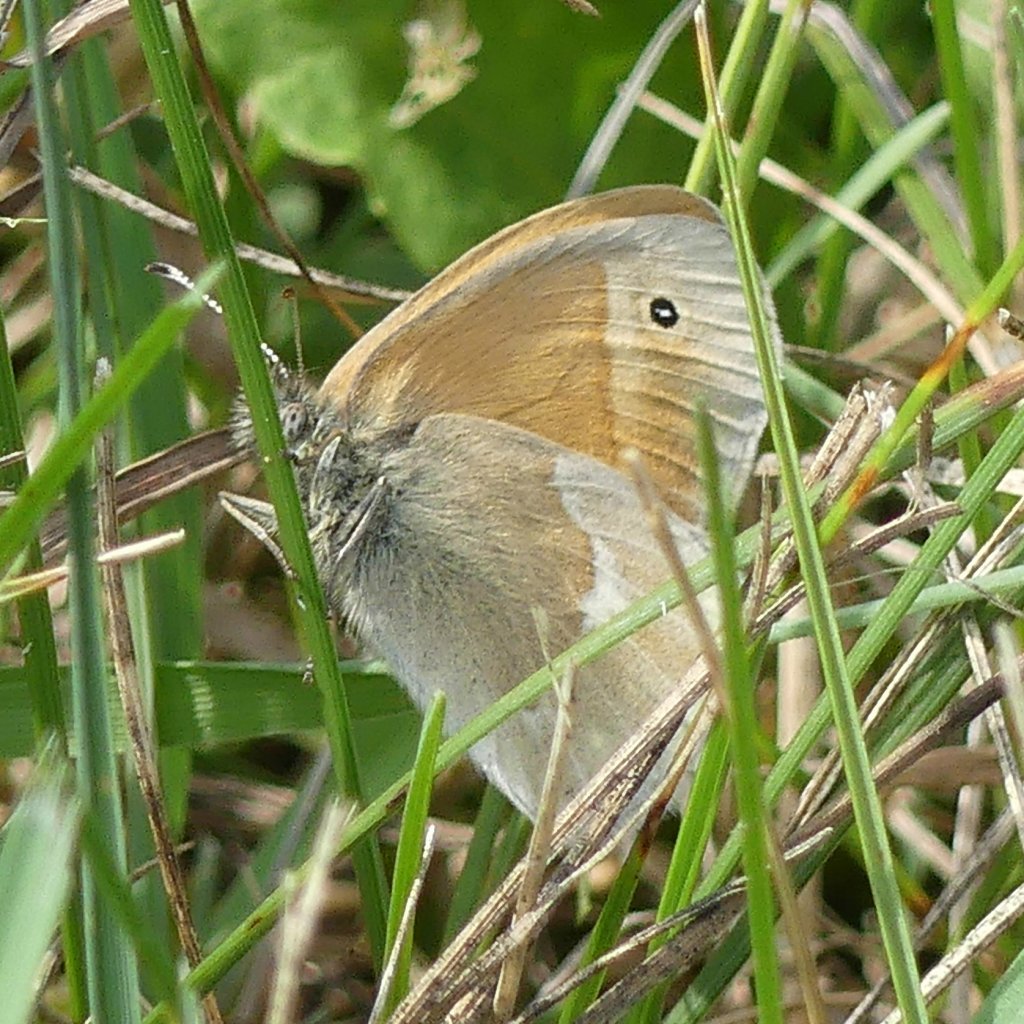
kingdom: Animalia
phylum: Arthropoda
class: Insecta
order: Lepidoptera
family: Nymphalidae
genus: Coenonympha
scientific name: Coenonympha tullia
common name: Large Heath
